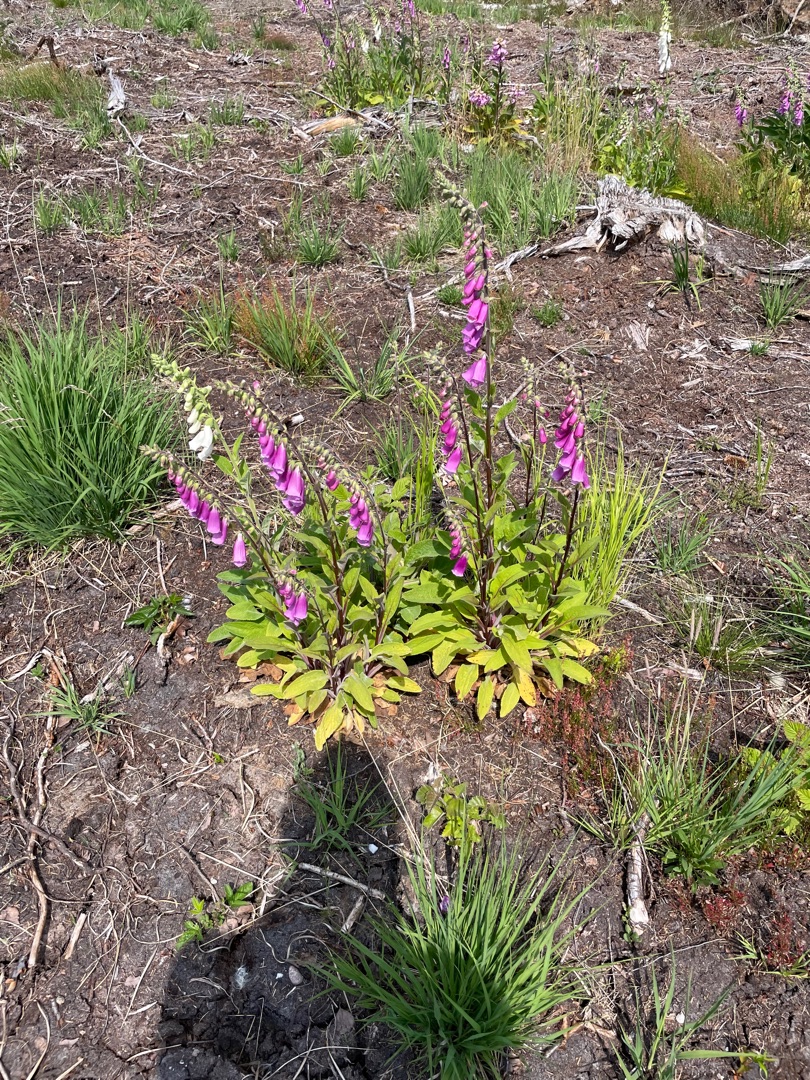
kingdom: Plantae
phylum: Tracheophyta
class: Magnoliopsida
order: Lamiales
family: Plantaginaceae
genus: Digitalis
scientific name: Digitalis purpurea
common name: Almindelig fingerbøl
